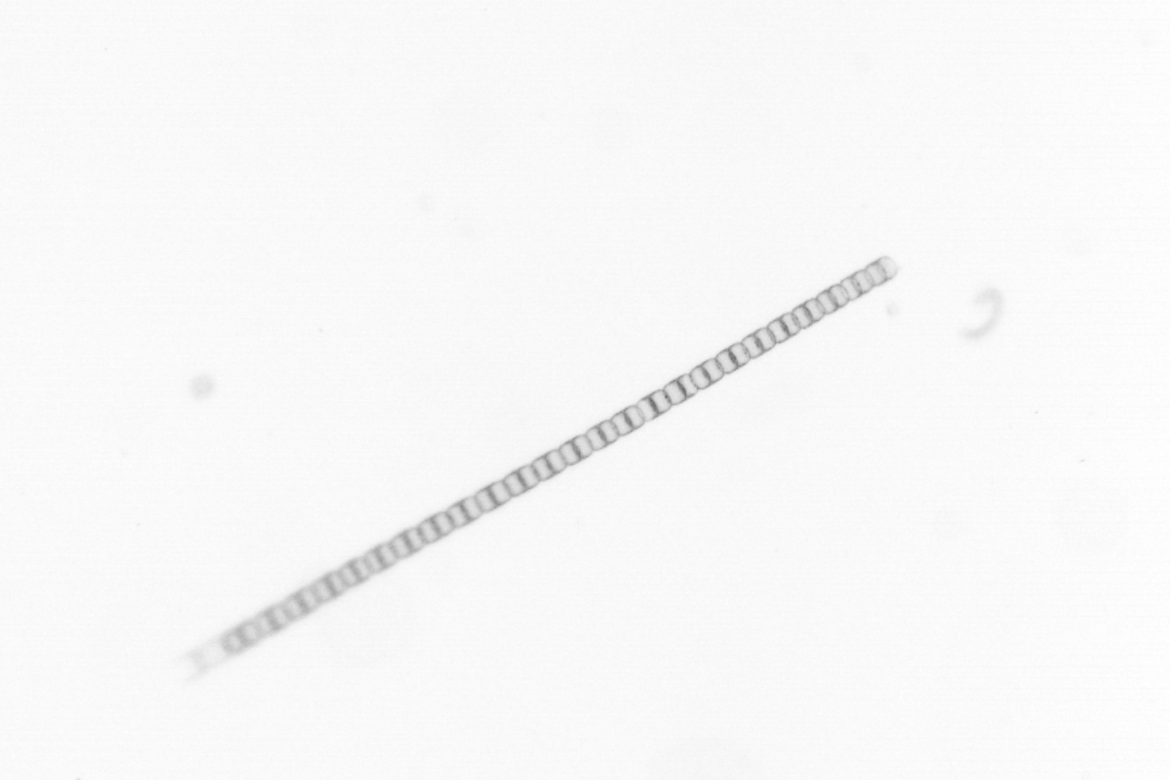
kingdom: Chromista
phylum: Ochrophyta
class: Bacillariophyceae
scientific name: Bacillariophyceae
